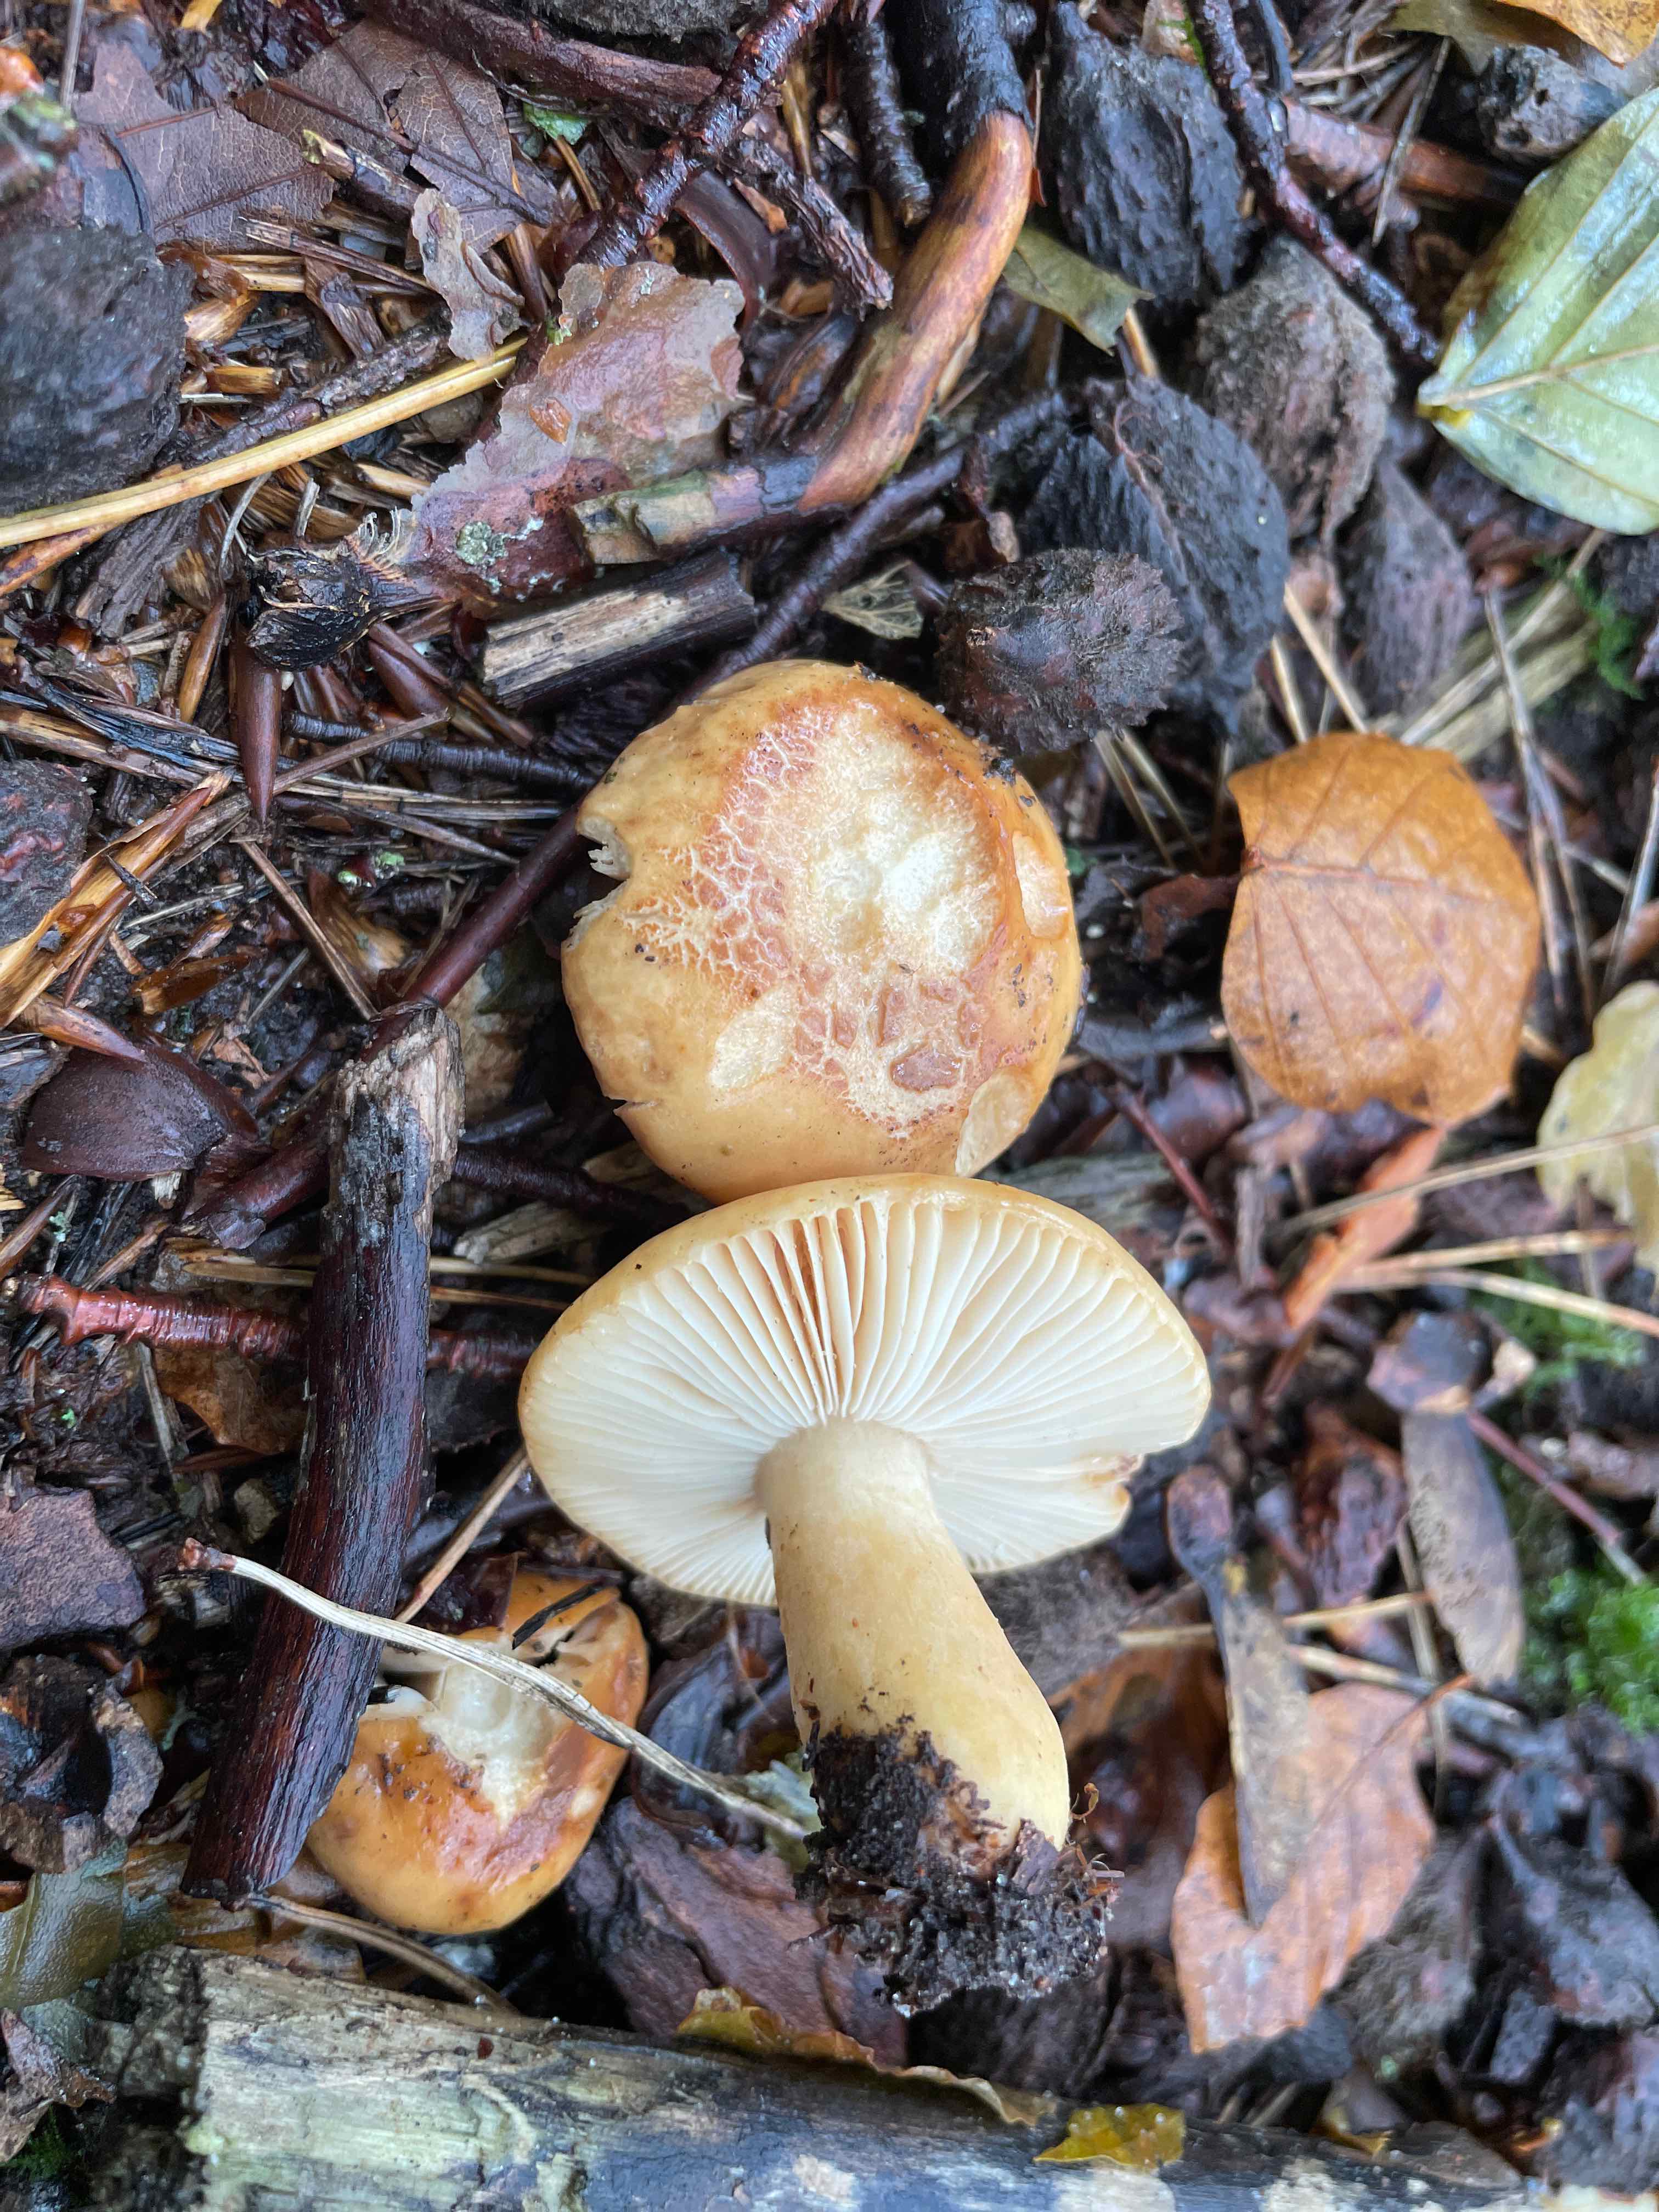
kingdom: Fungi
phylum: Basidiomycota
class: Agaricomycetes
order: Russulales
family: Russulaceae
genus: Russula
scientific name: Russula fellea
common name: galde-skørhat
